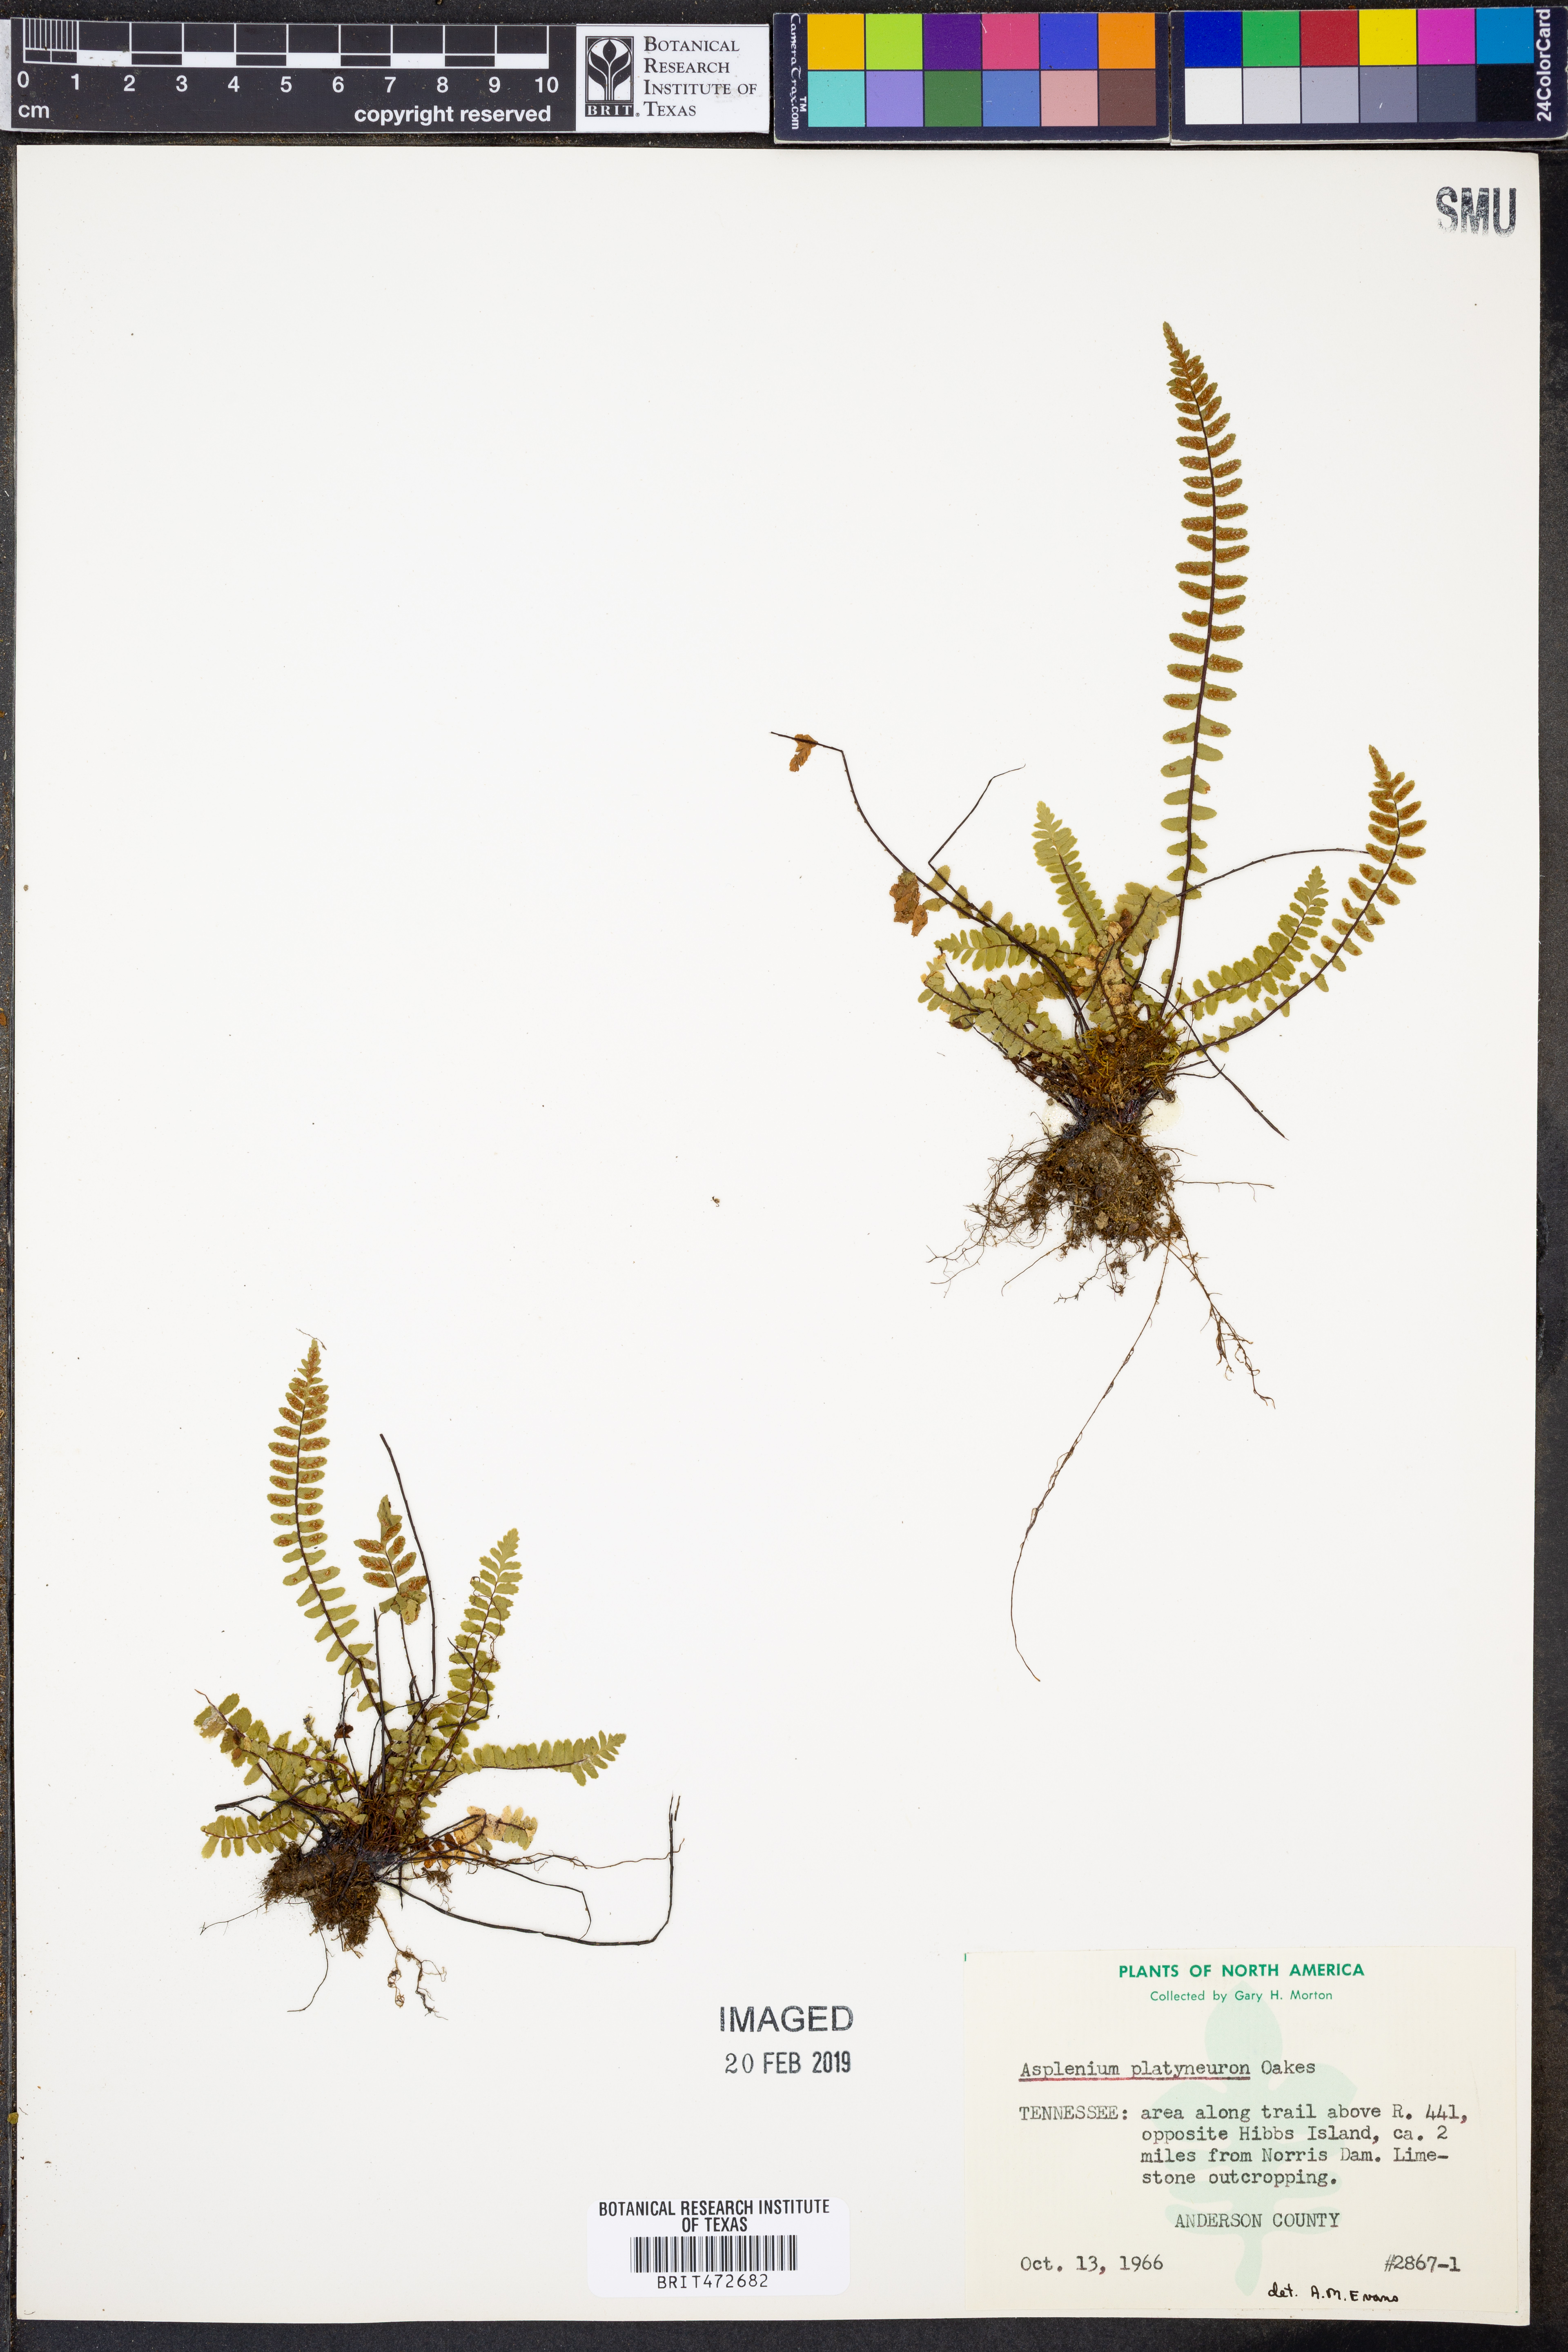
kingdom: Plantae
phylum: Tracheophyta
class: Polypodiopsida
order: Polypodiales
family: Aspleniaceae
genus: Asplenium
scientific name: Asplenium platyneuron
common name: Ebony spleenwort
